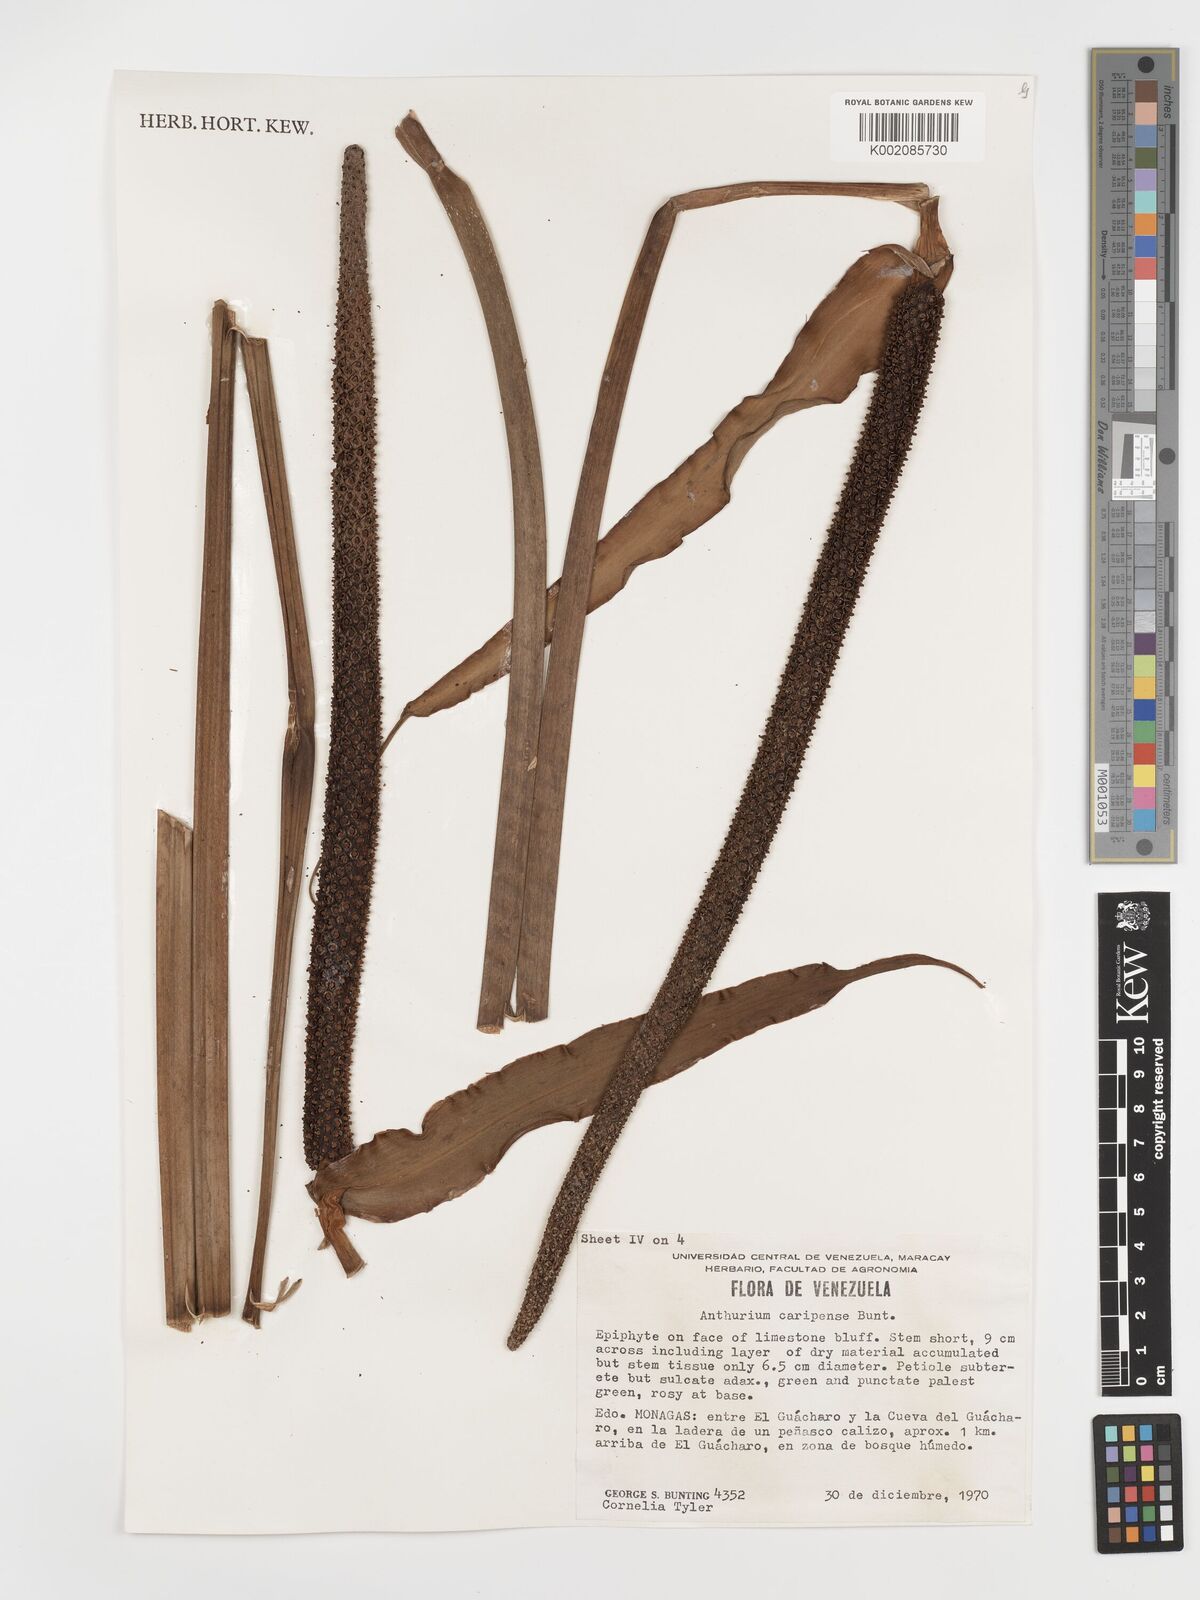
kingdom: Plantae
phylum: Tracheophyta
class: Liliopsida
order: Alismatales
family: Araceae
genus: Anthurium
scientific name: Anthurium caripense
